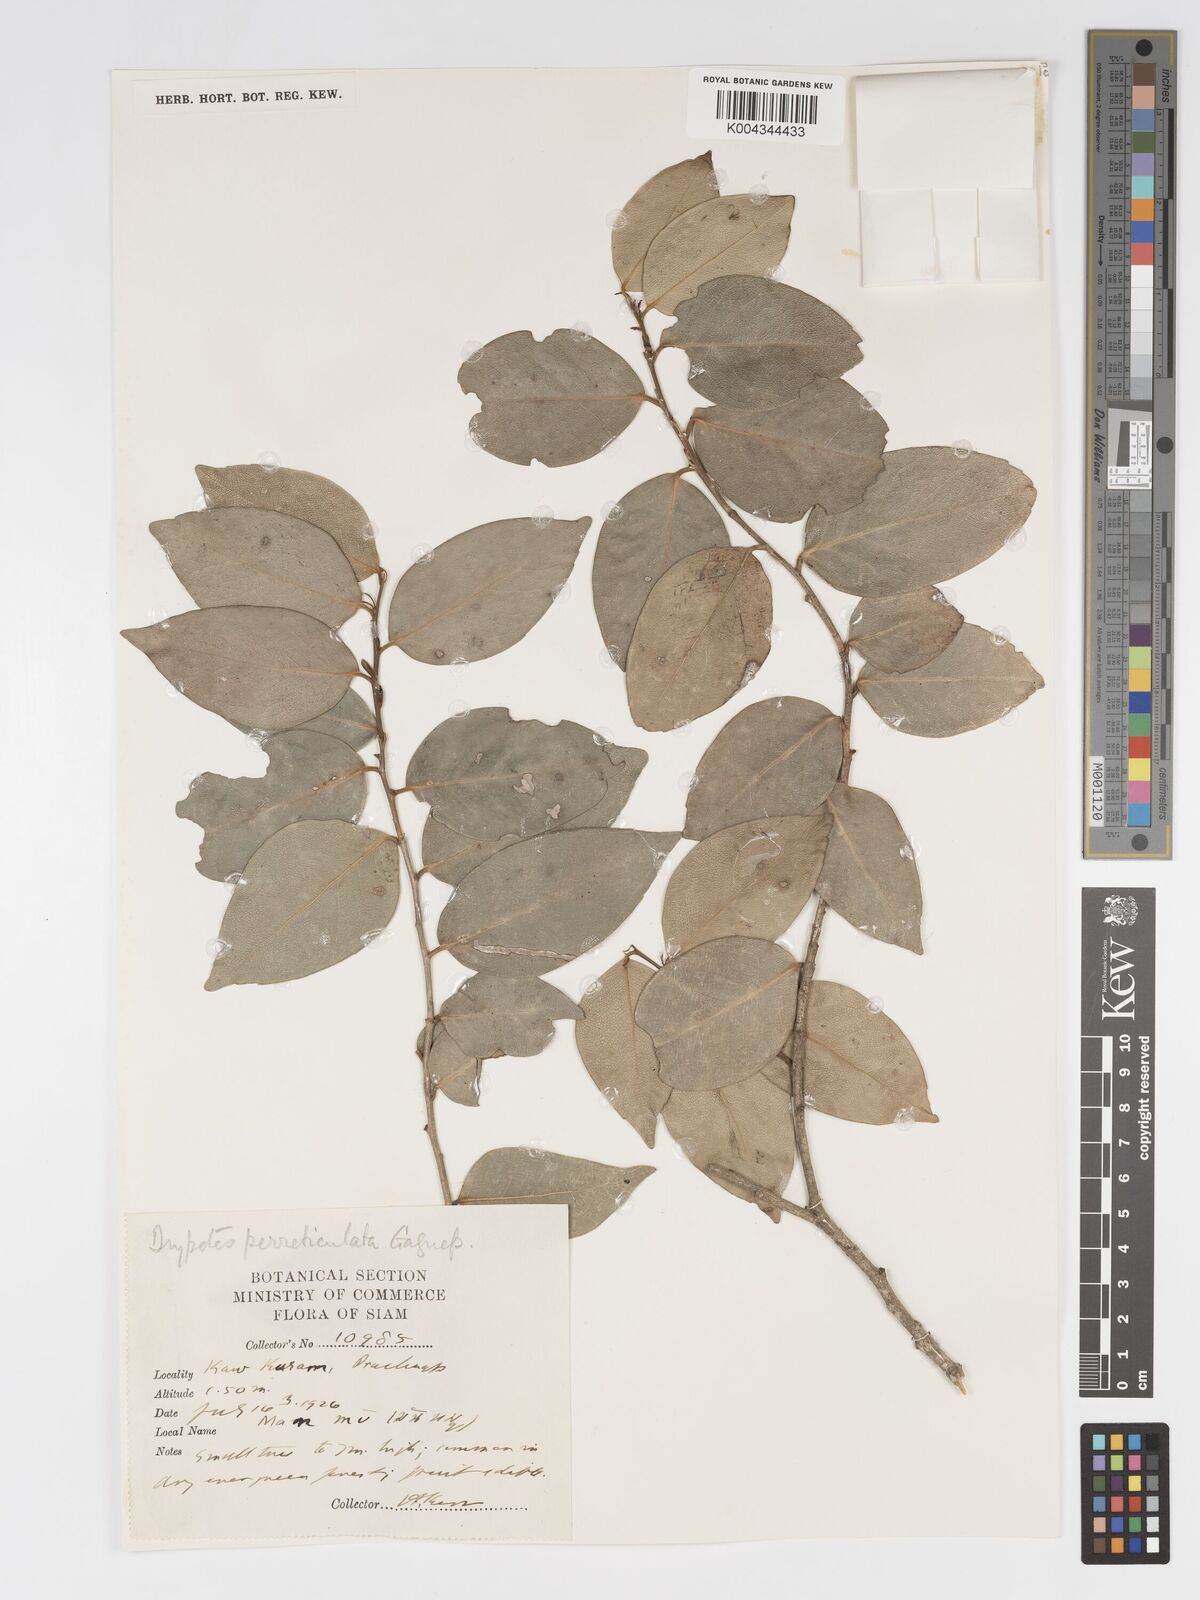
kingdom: Plantae
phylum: Tracheophyta
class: Magnoliopsida
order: Malpighiales
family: Putranjivaceae
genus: Drypetes
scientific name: Drypetes perreticulata
